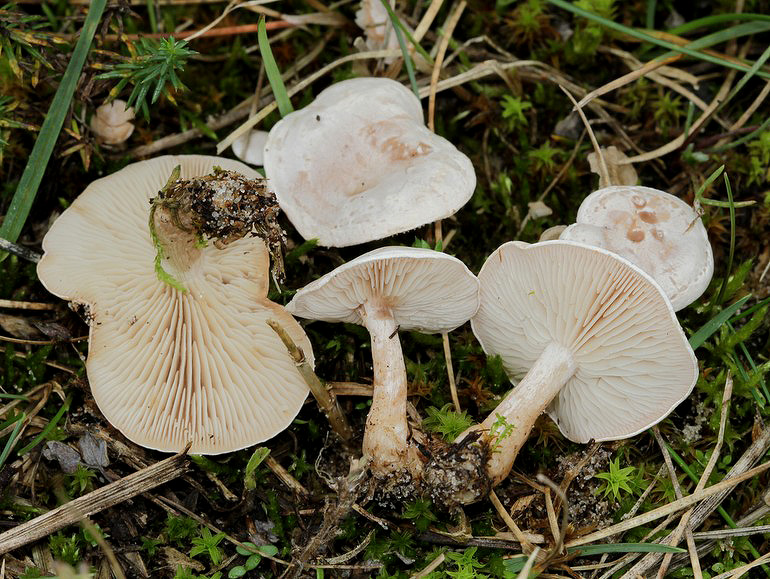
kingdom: Fungi
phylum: Basidiomycota
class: Agaricomycetes
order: Agaricales
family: Tricholomataceae
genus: Clitocybe
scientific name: Clitocybe rivulosa
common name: eng-tragthat
